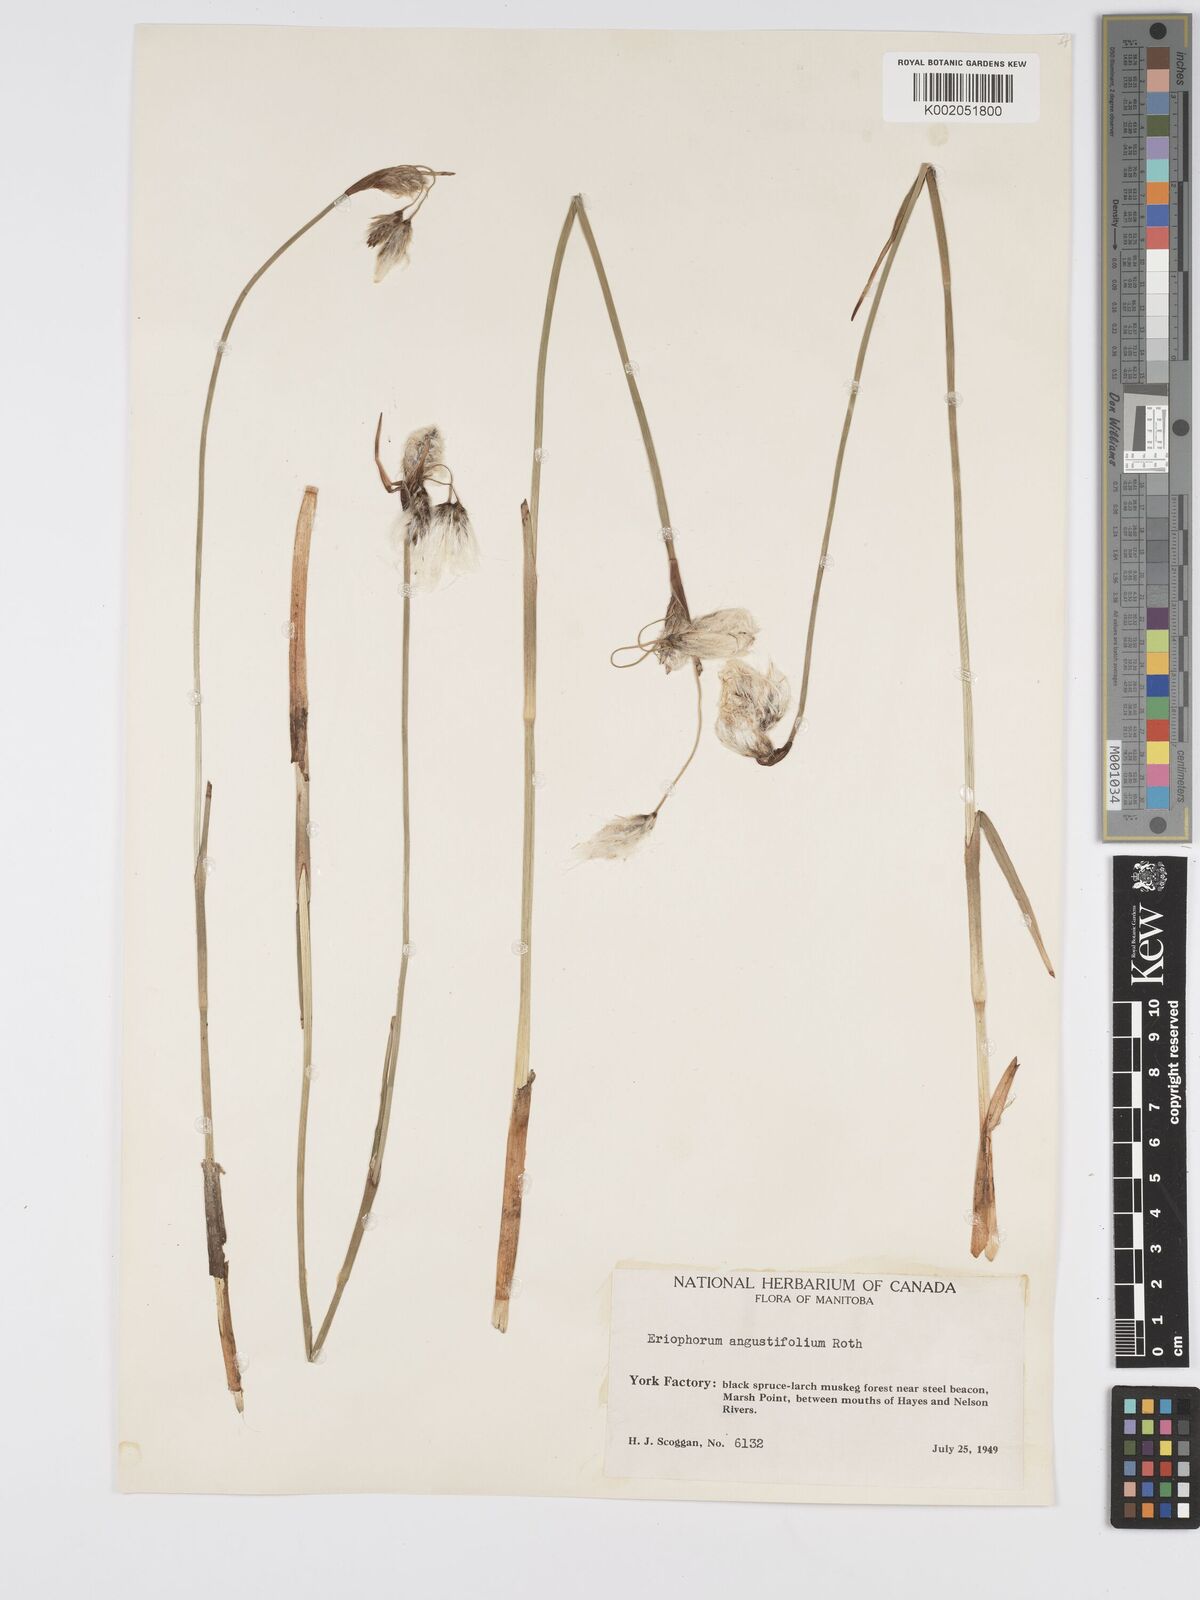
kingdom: Plantae
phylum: Tracheophyta
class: Liliopsida
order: Poales
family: Cyperaceae
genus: Eriophorum
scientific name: Eriophorum angustifolium
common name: Common cottongrass
